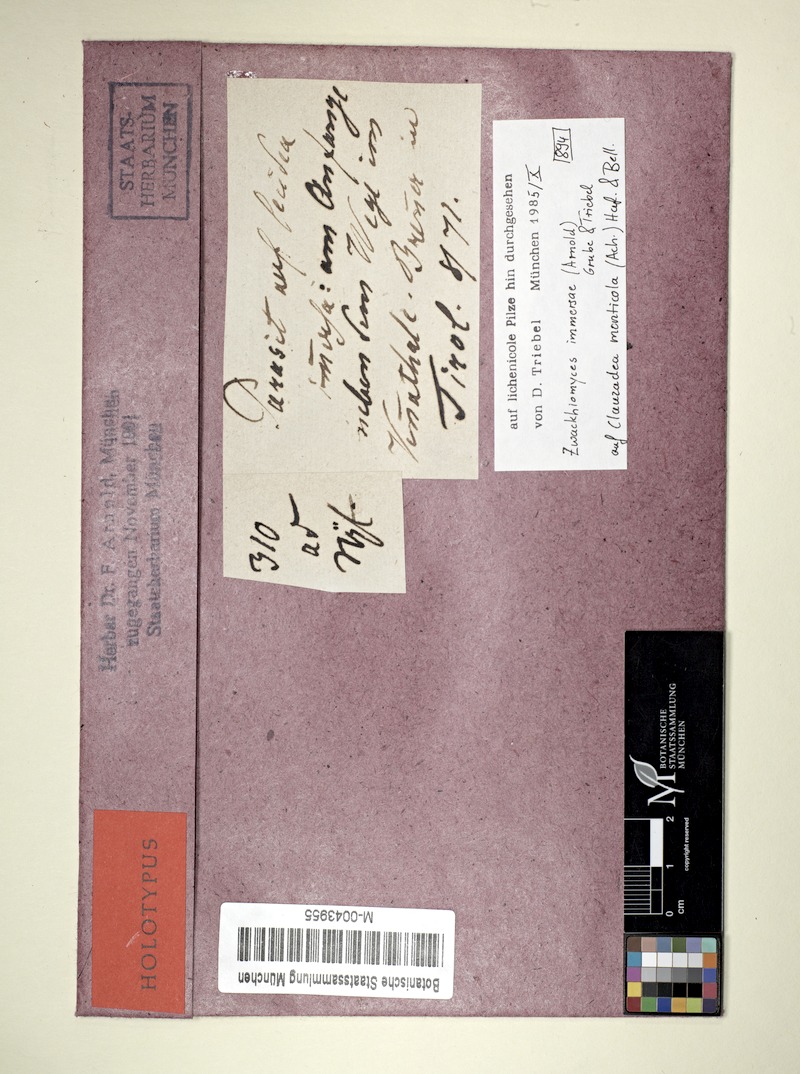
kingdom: Fungi
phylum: Ascomycota
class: Lecanoromycetes
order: Lecideales
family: Lecideaceae
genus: Clauzadea
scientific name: Clauzadea monticola
